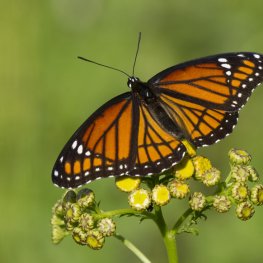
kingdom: Animalia
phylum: Arthropoda
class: Insecta
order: Lepidoptera
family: Nymphalidae
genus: Limenitis
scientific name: Limenitis archippus
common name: Viceroy
